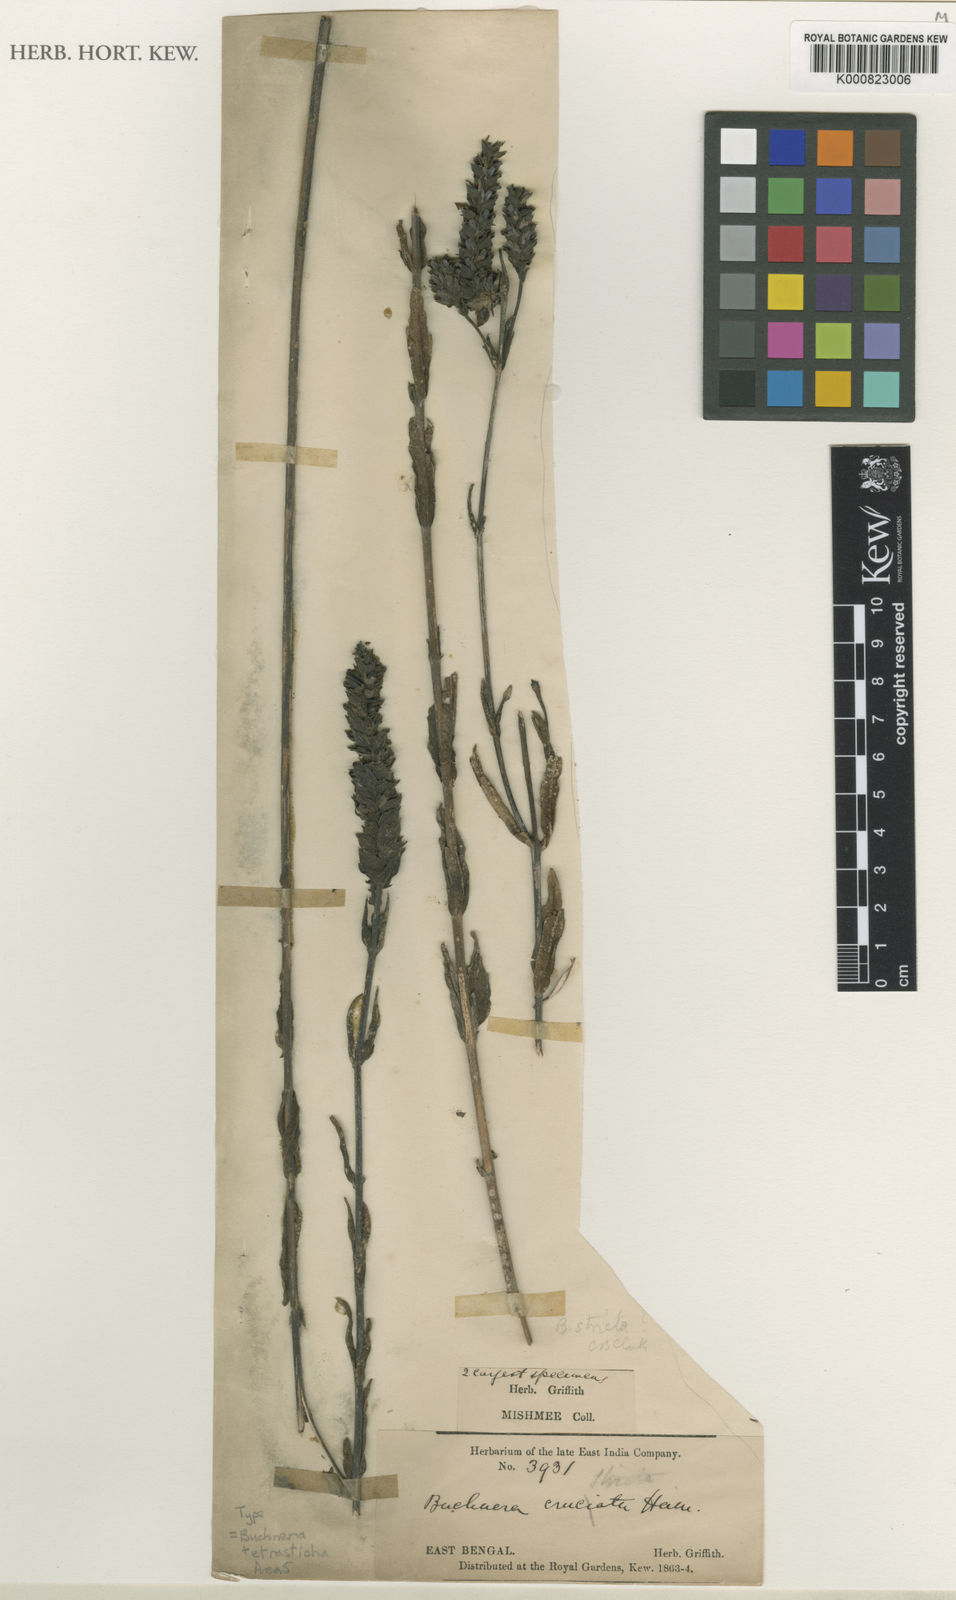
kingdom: Plantae
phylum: Tracheophyta
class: Magnoliopsida
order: Lamiales
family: Orobanchaceae
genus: Buchnera
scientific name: Buchnera tetrasticha
